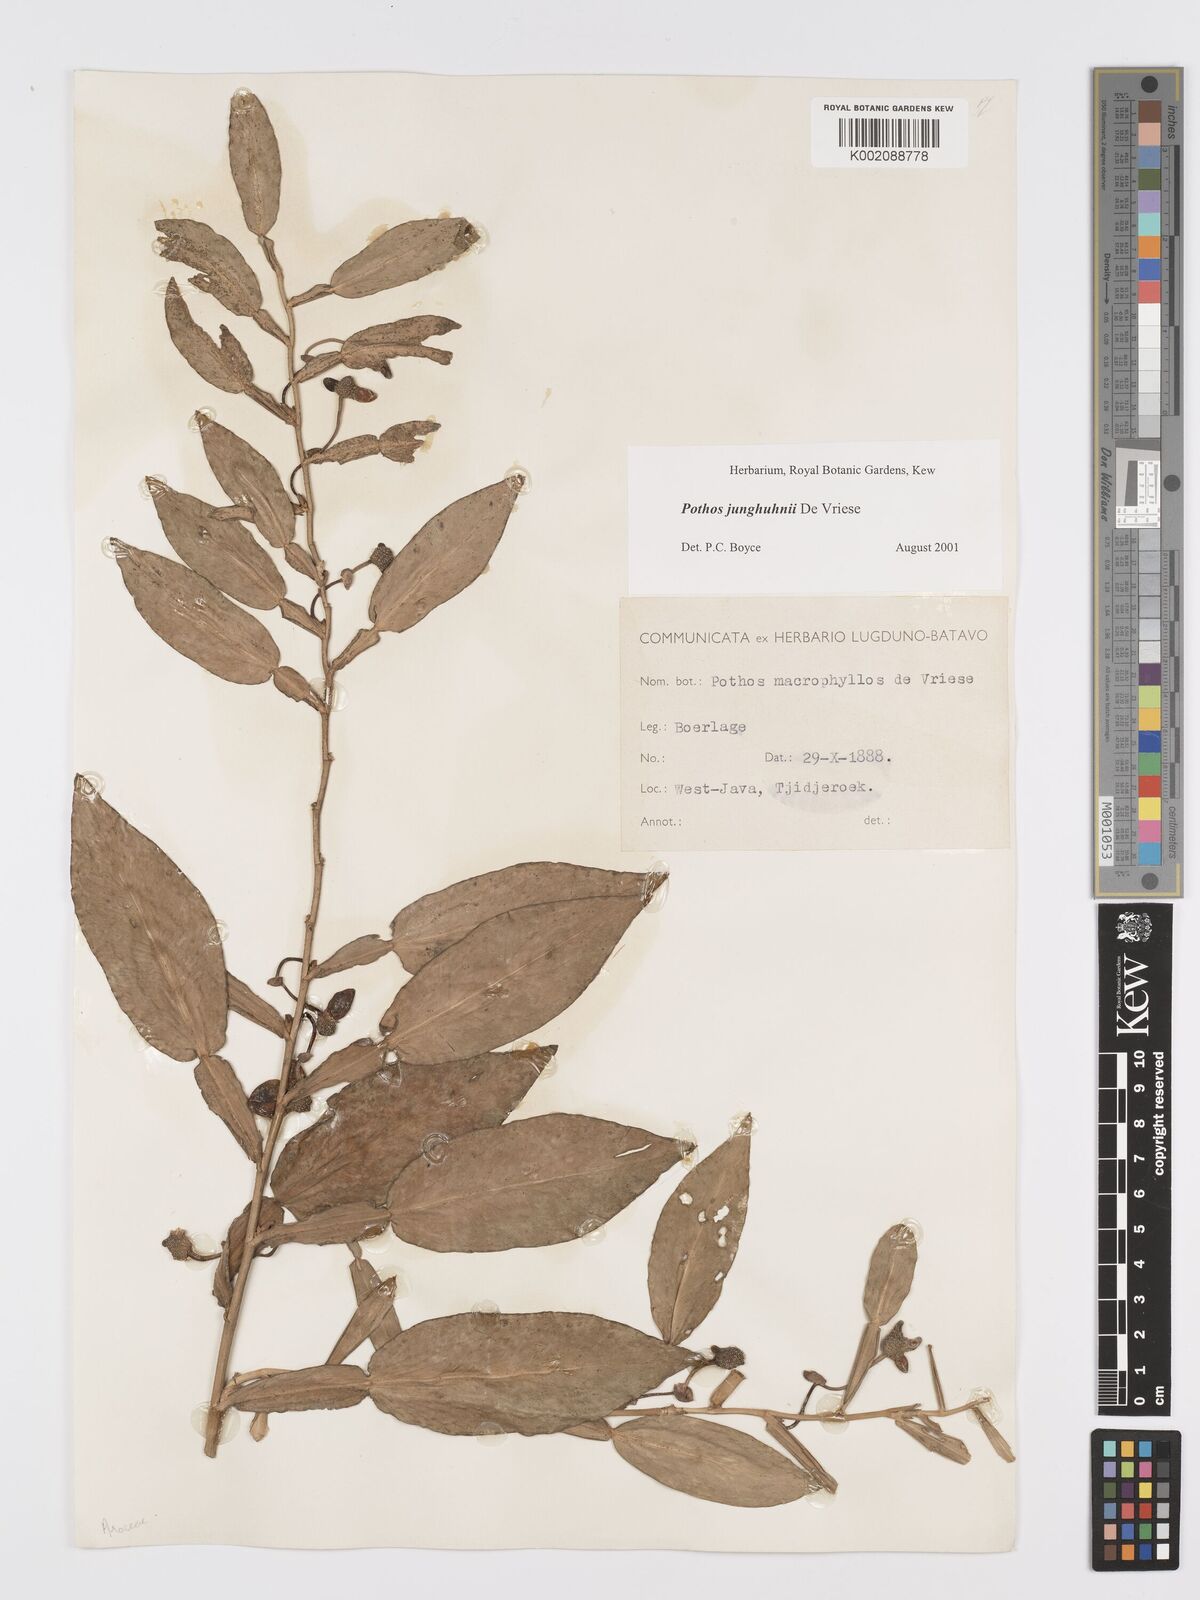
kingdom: Plantae
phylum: Tracheophyta
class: Liliopsida
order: Alismatales
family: Araceae
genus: Pothos
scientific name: Pothos junghuhnii
